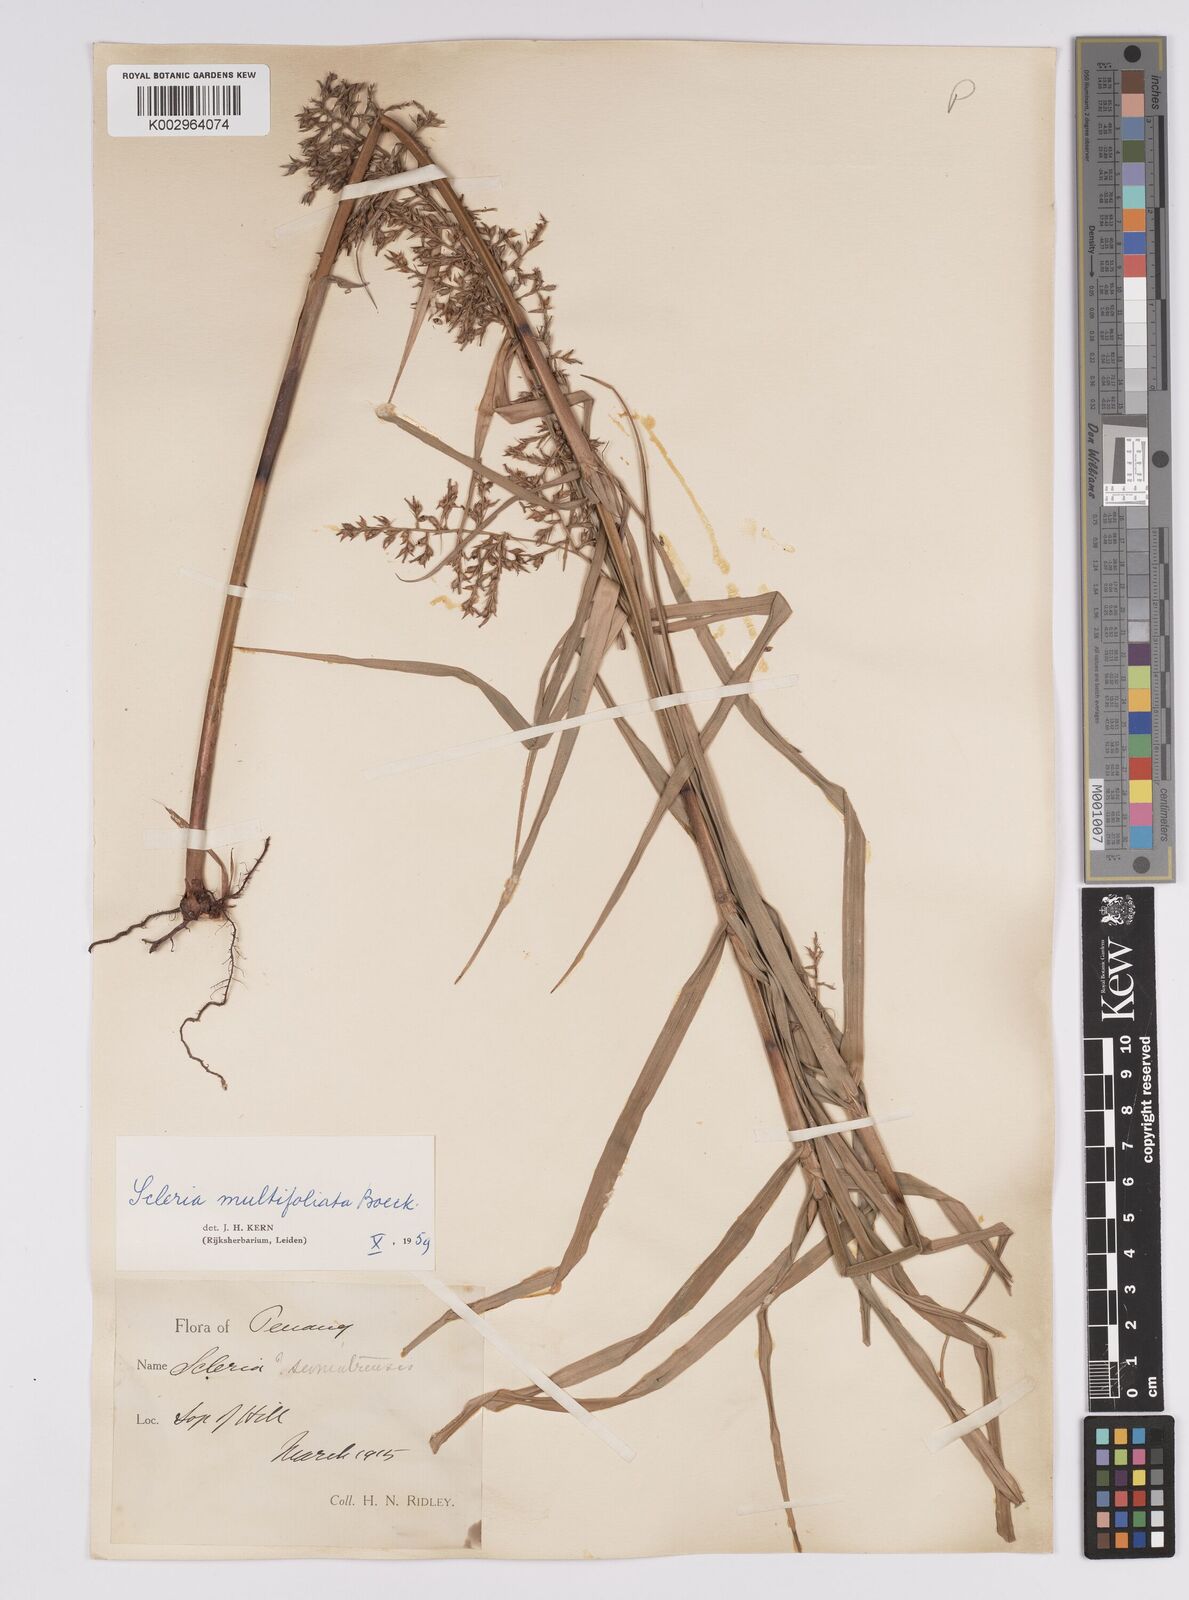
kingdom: Plantae
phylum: Tracheophyta
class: Liliopsida
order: Poales
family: Cyperaceae
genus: Scleria
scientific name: Scleria purpurascens
